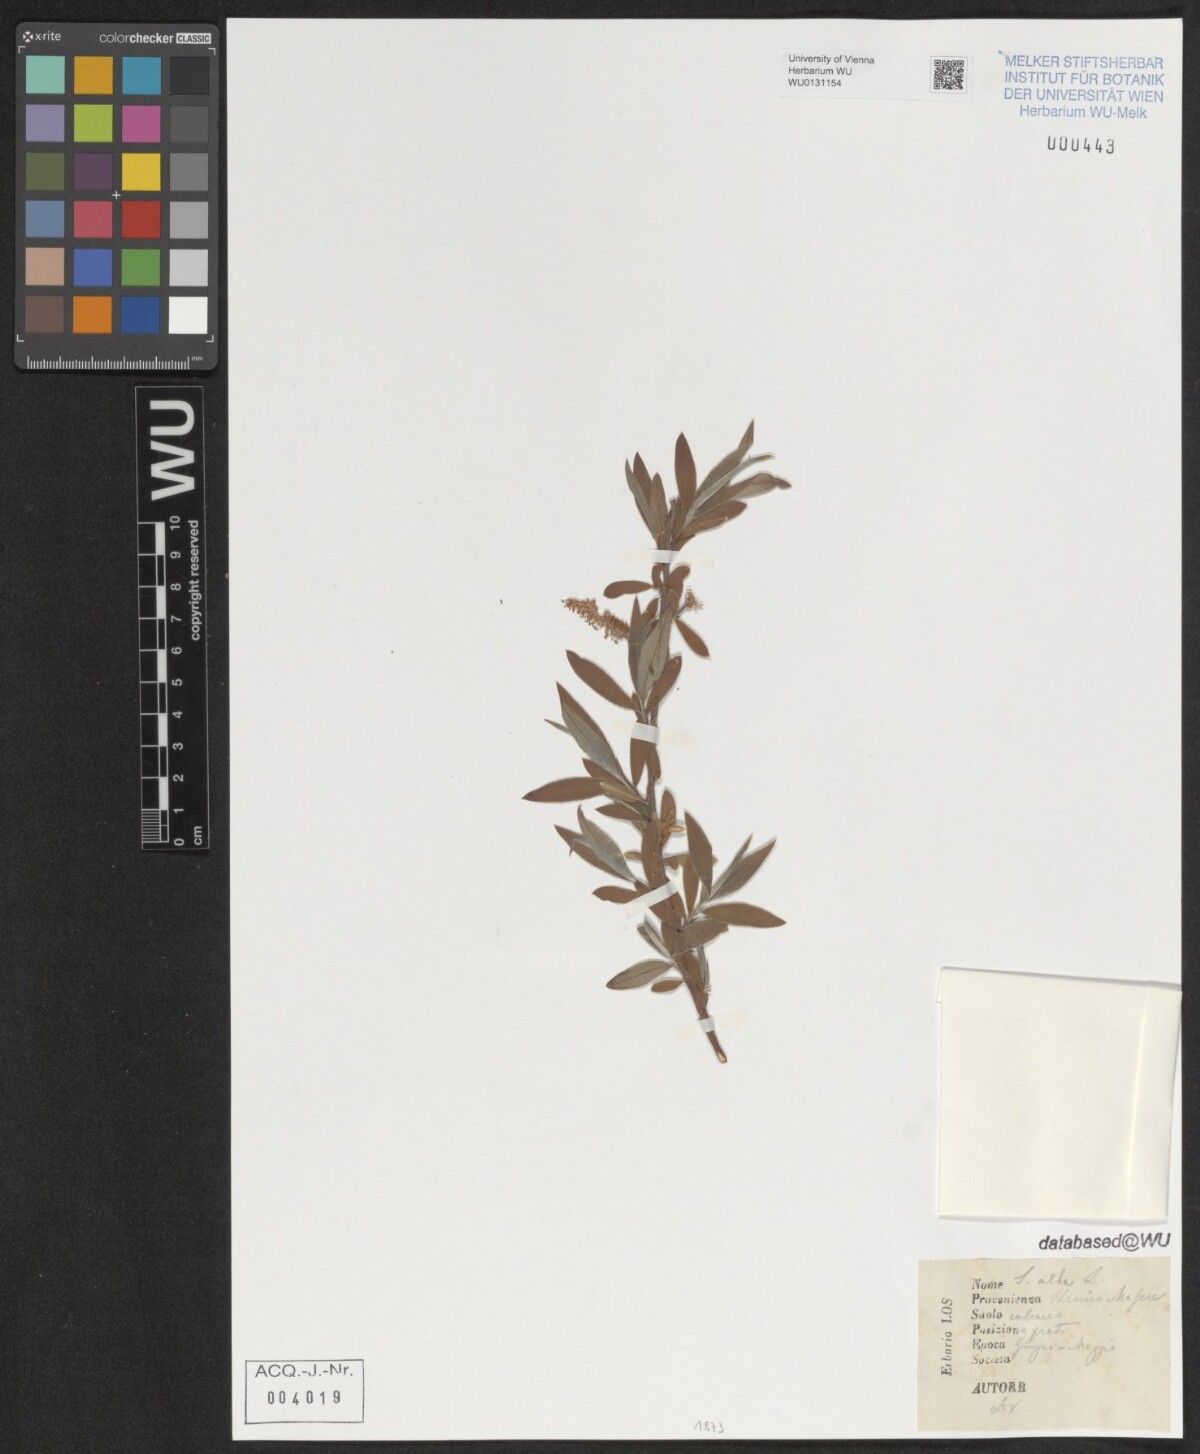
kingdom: Plantae
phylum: Tracheophyta
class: Magnoliopsida
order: Malpighiales
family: Salicaceae
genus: Salix
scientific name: Salix alba
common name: White willow
